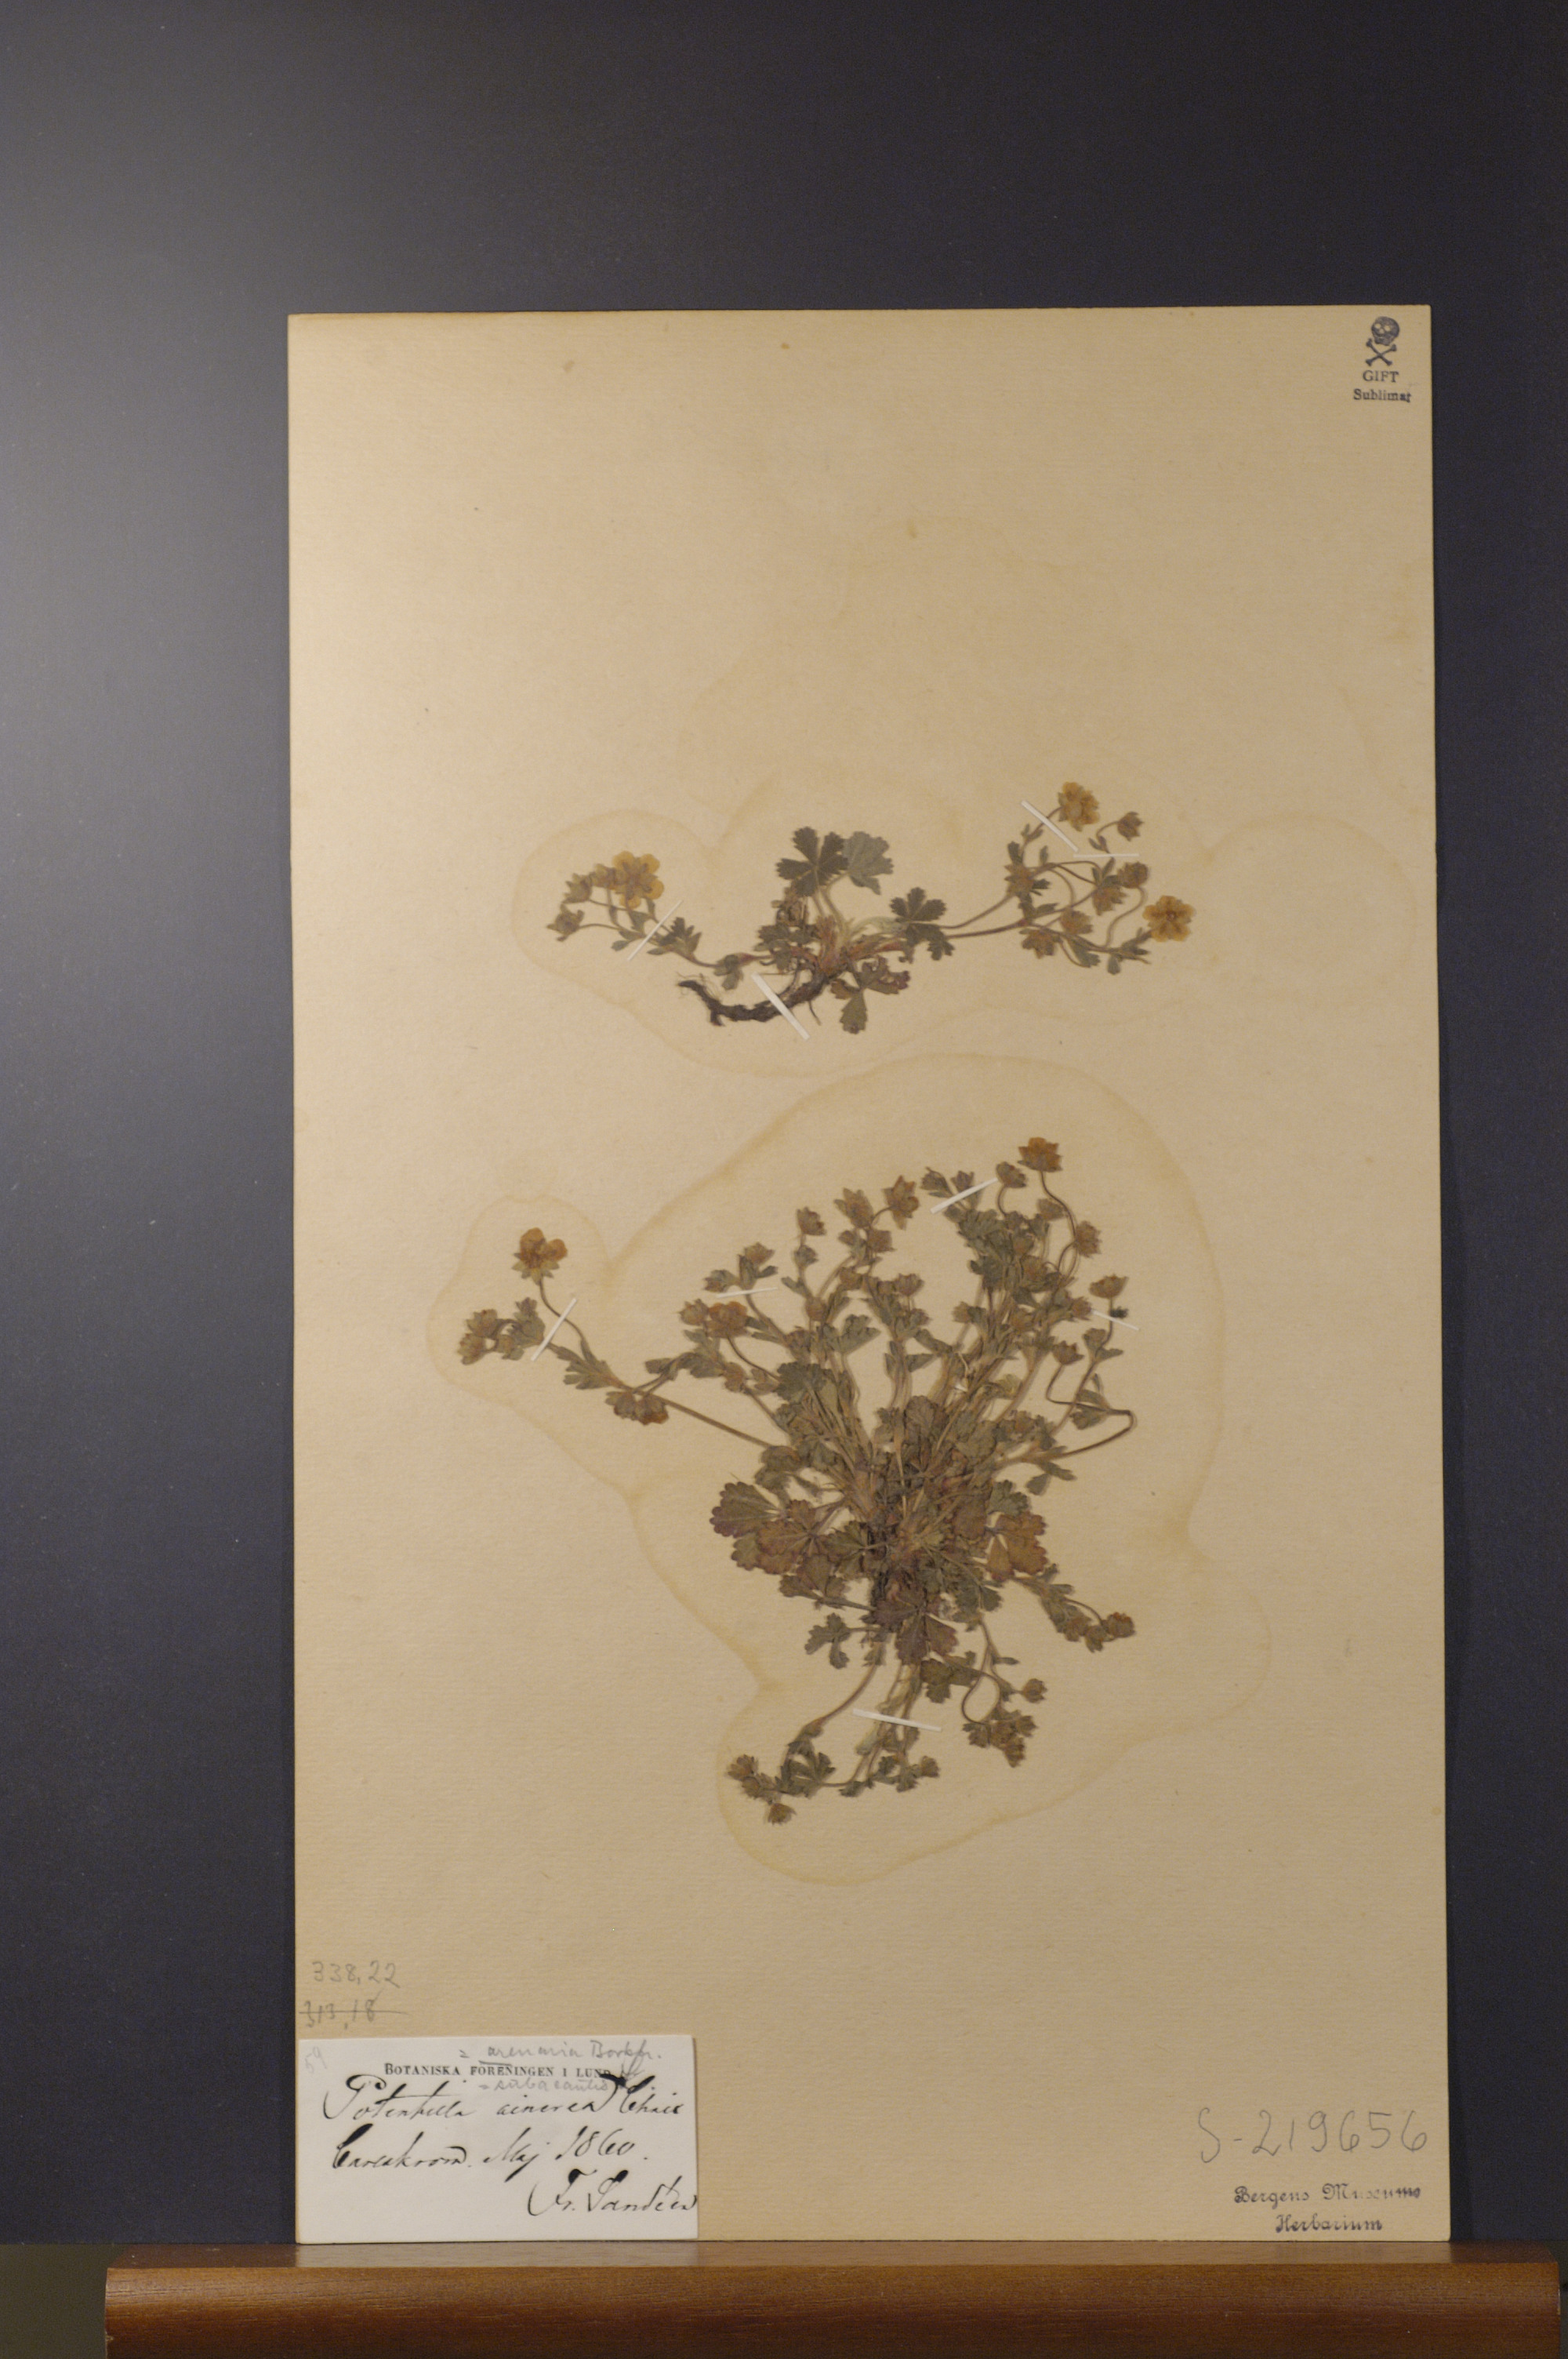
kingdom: Plantae
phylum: Tracheophyta
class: Magnoliopsida
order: Rosales
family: Rosaceae
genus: Potentilla
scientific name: Potentilla cinerea
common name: Ashy cinquefoil
